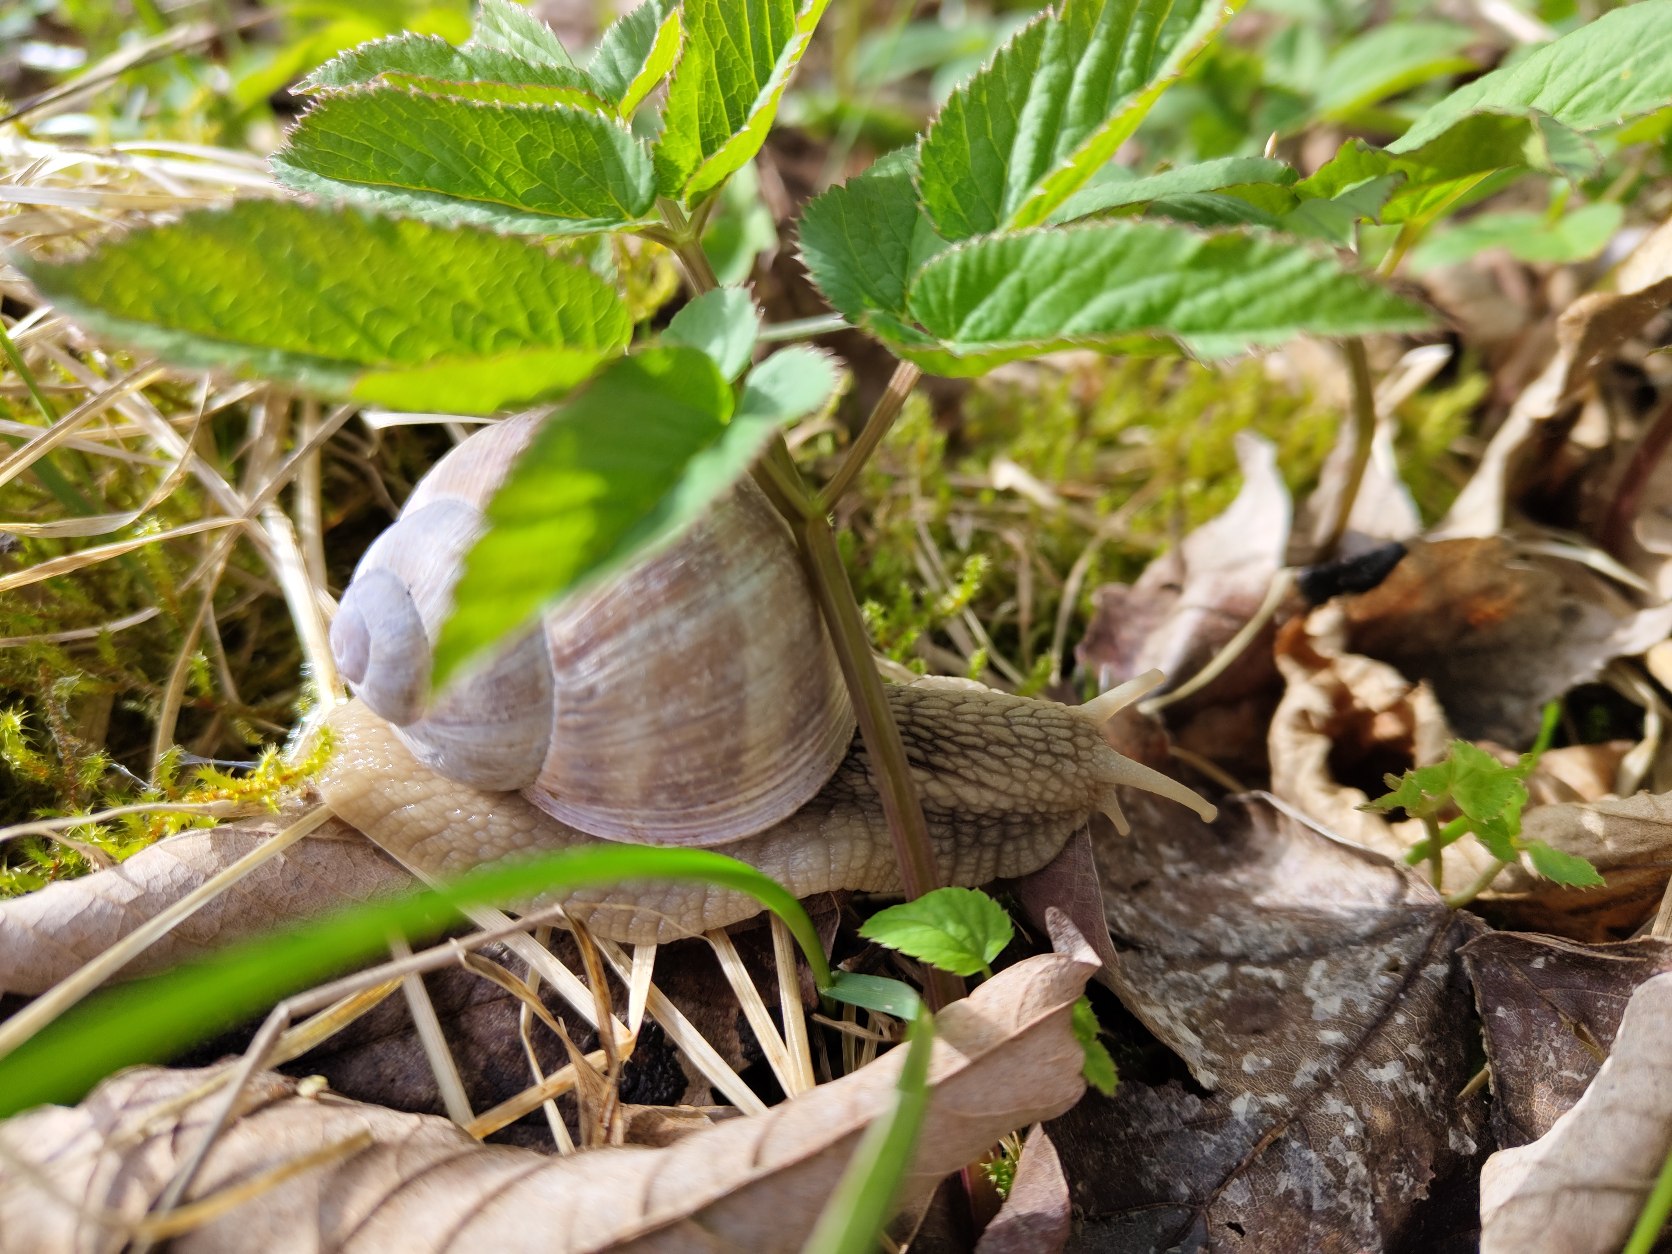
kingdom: Animalia
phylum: Mollusca
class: Gastropoda
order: Stylommatophora
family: Helicidae
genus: Helix
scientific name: Helix pomatia
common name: Vinbjergsnegl
